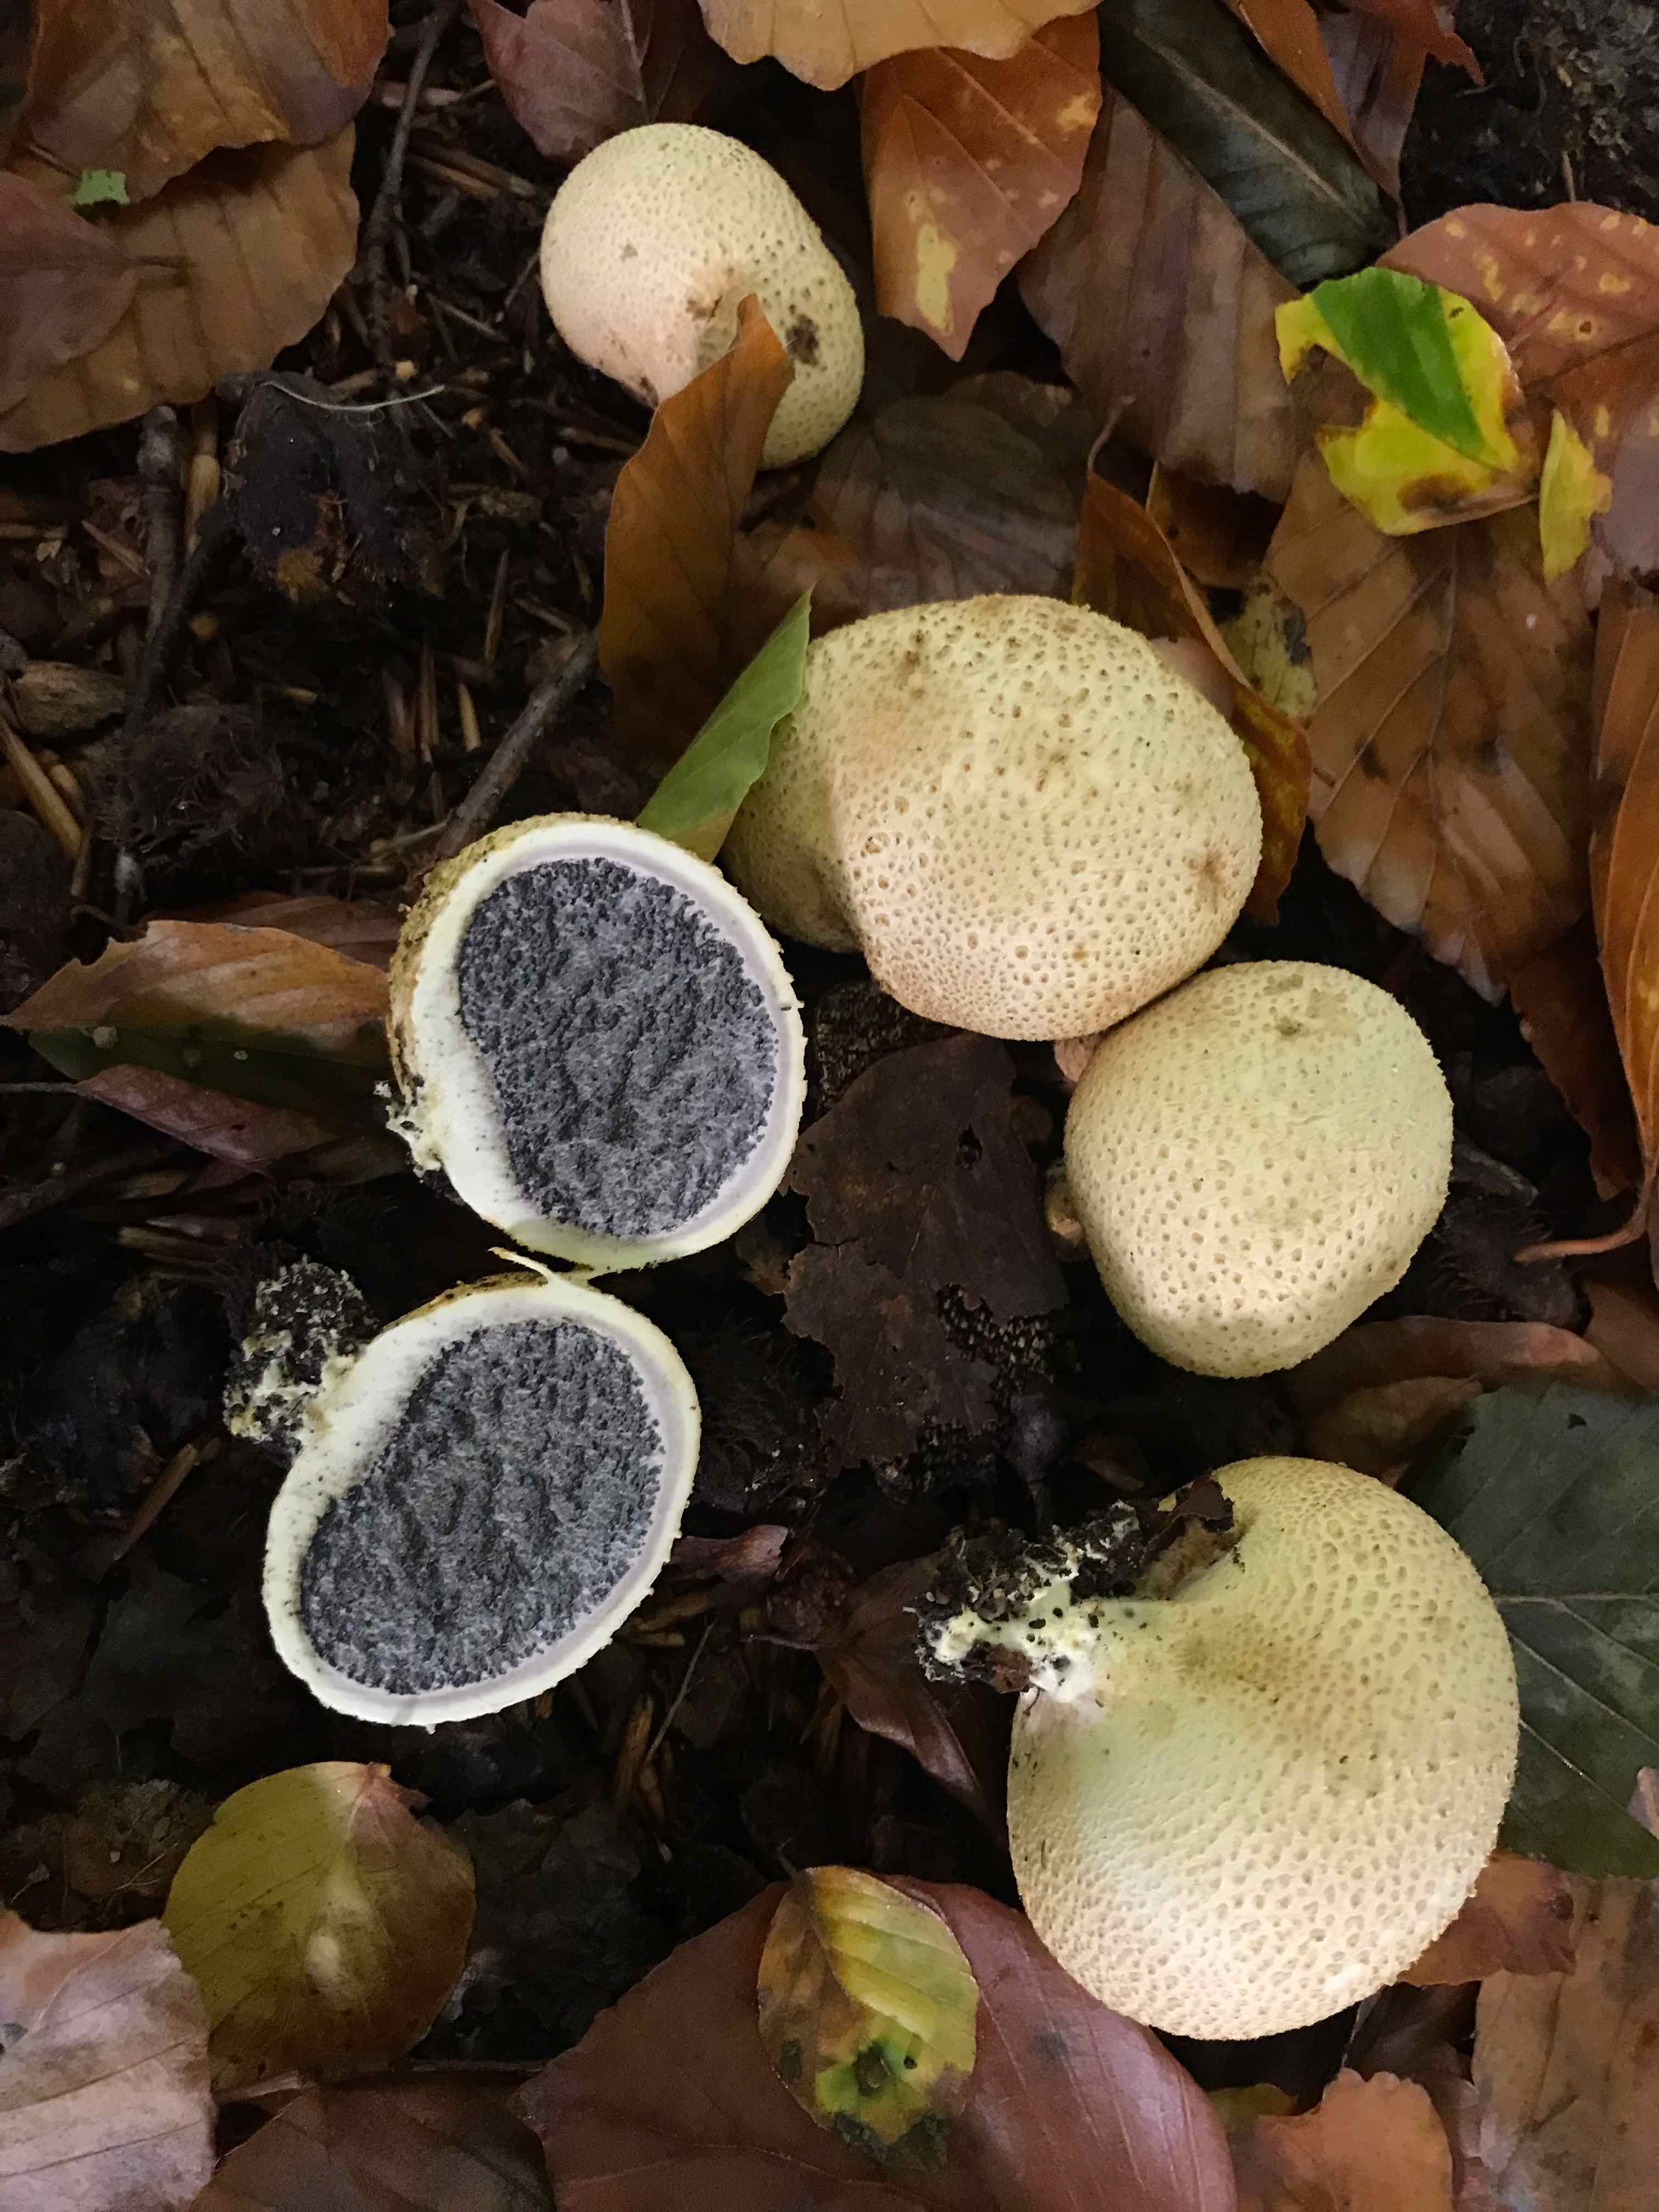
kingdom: Fungi
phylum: Basidiomycota
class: Agaricomycetes
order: Boletales
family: Sclerodermataceae
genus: Scleroderma
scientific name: Scleroderma citrinum
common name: almindelig bruskbold
